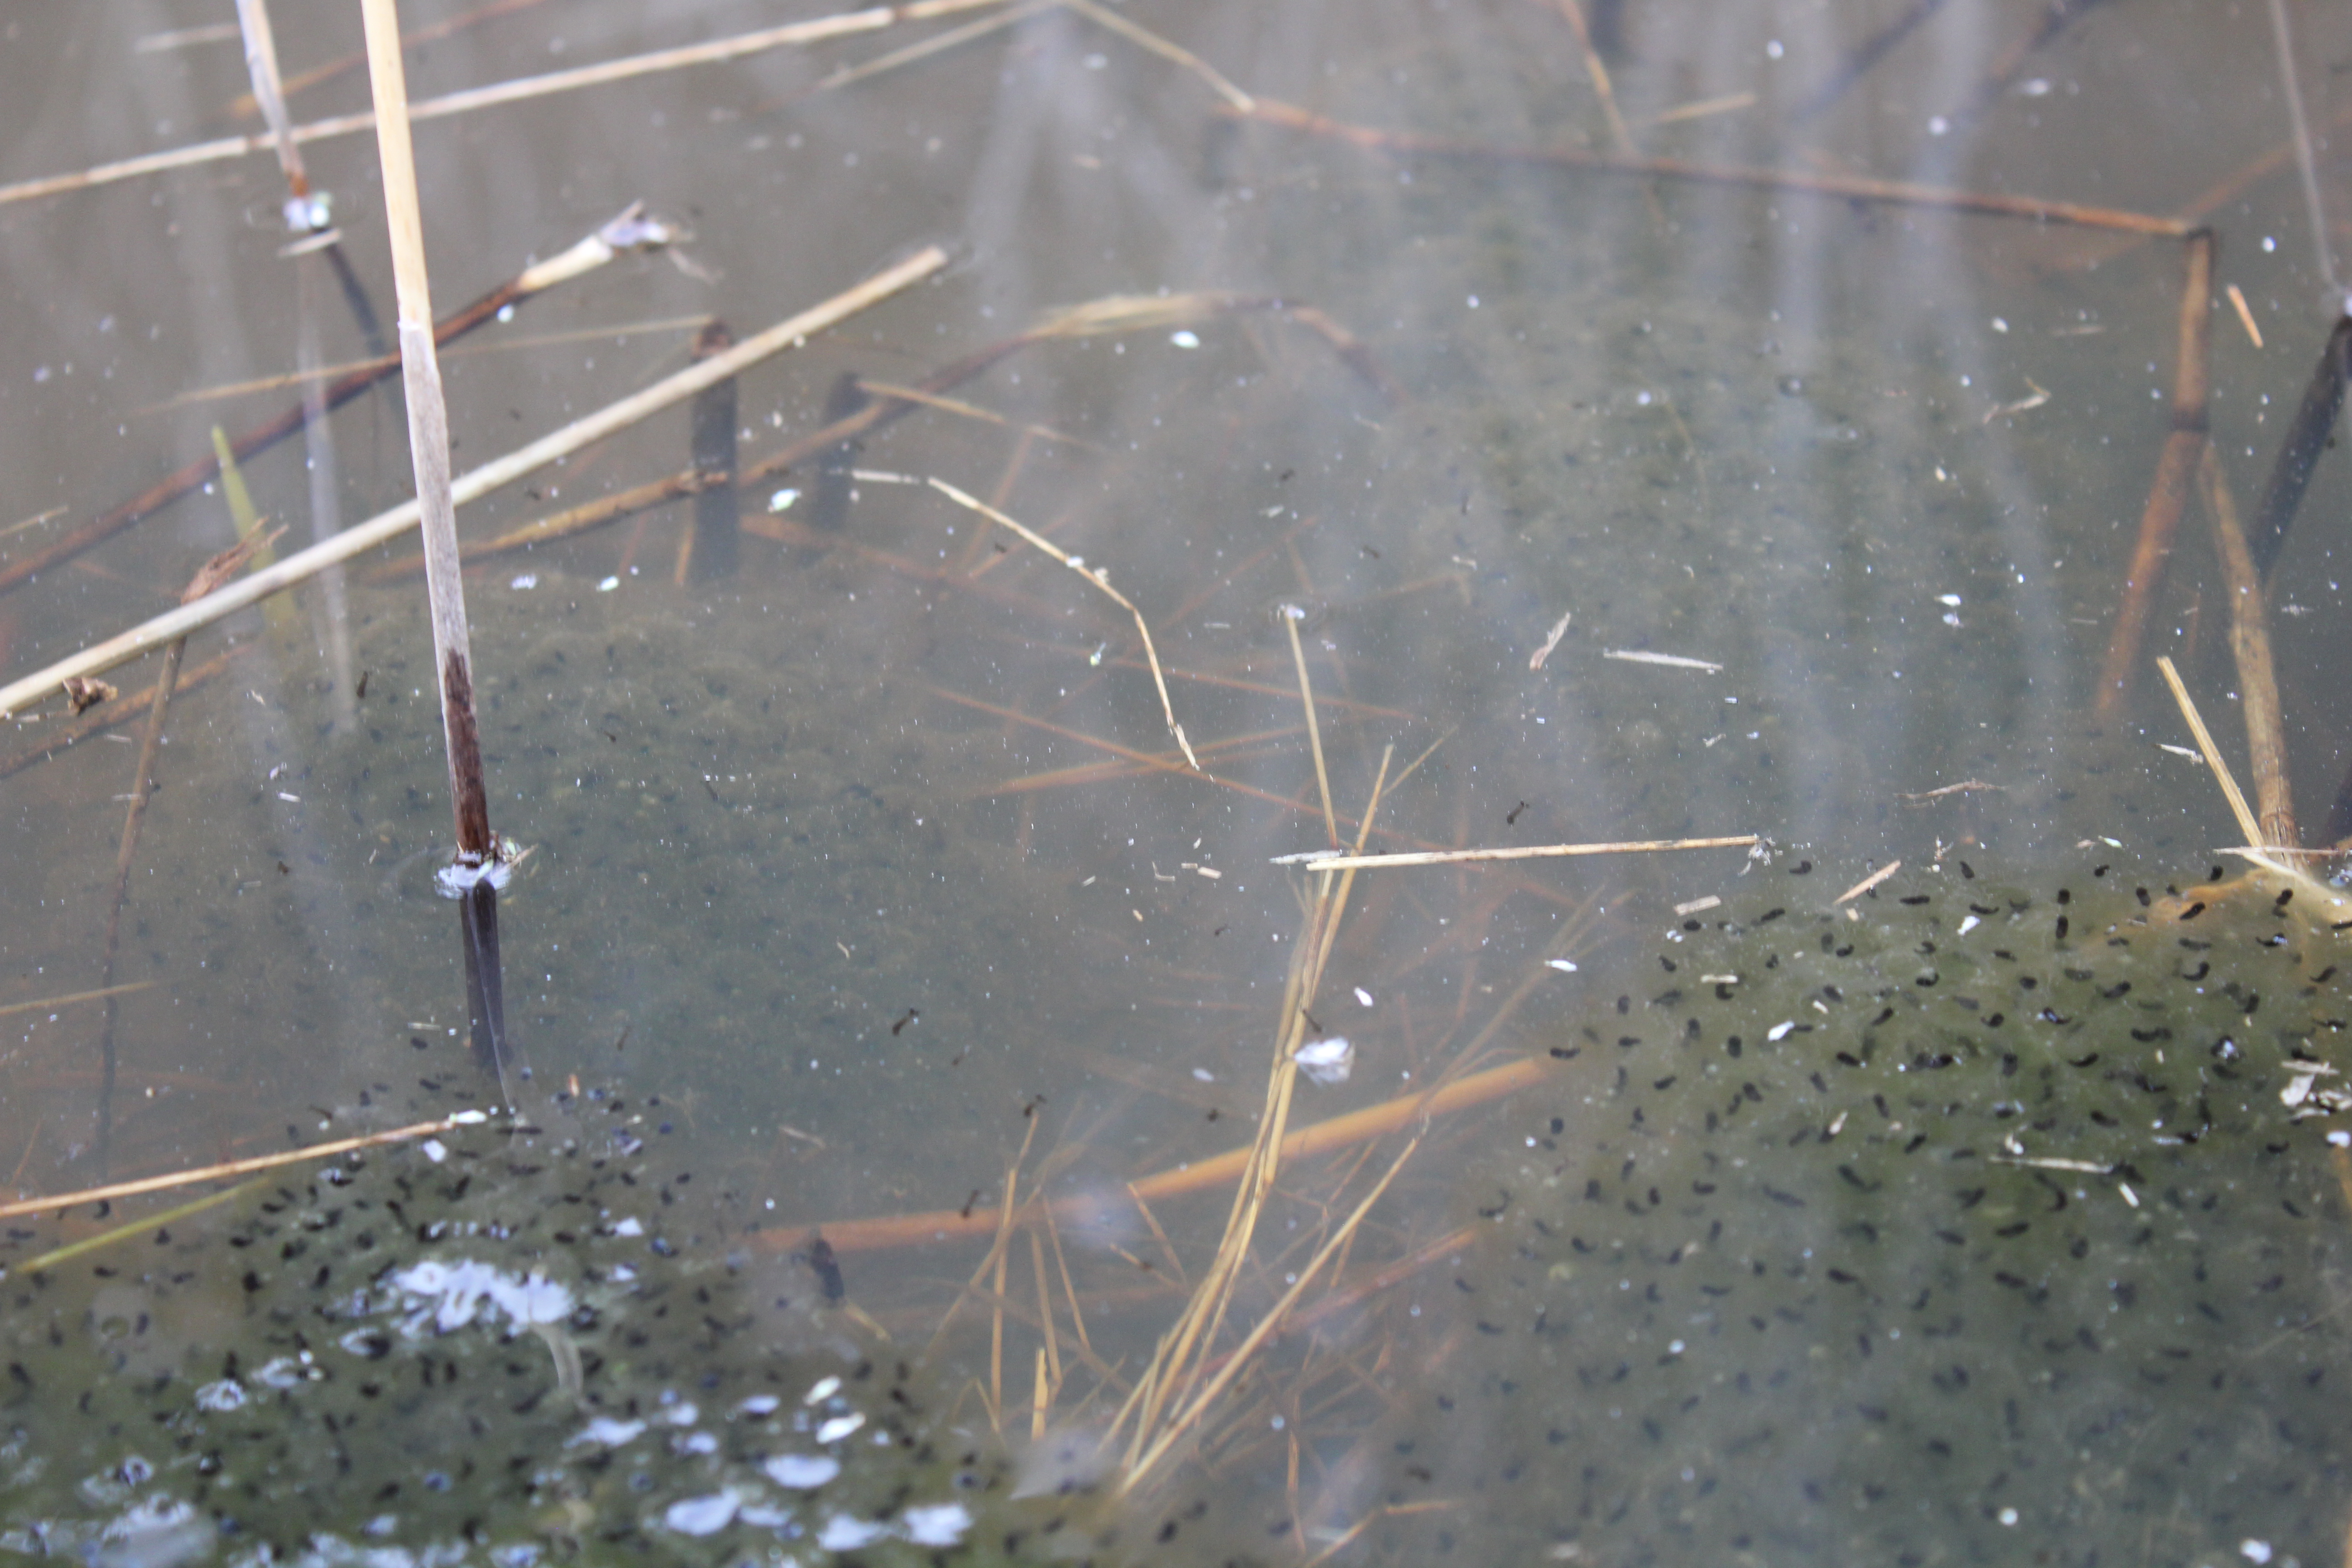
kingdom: Animalia
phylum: Chordata
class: Amphibia
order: Anura
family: Ranidae
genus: Rana
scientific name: Rana temporaria
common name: Common frog
